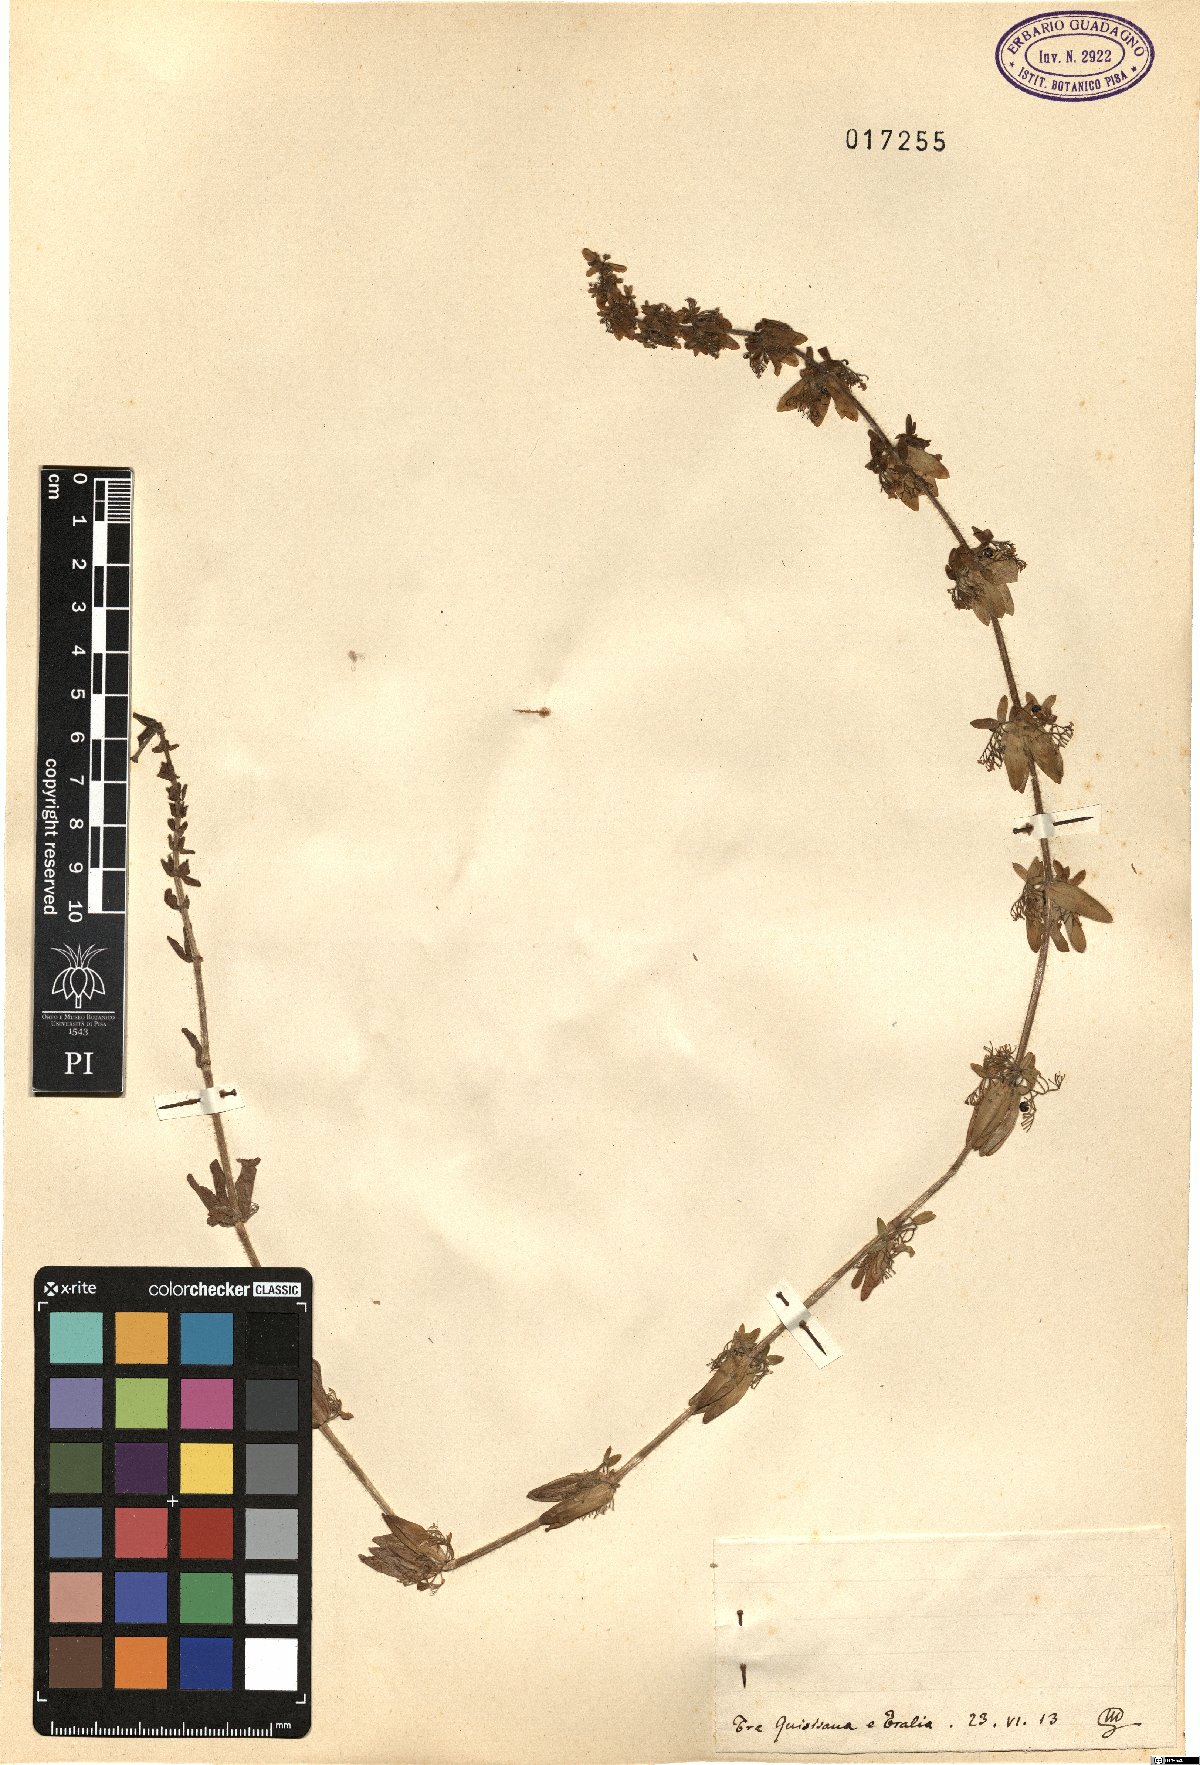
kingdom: Plantae
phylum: Tracheophyta
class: Magnoliopsida
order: Gentianales
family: Rubiaceae
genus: Galium
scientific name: Galium
